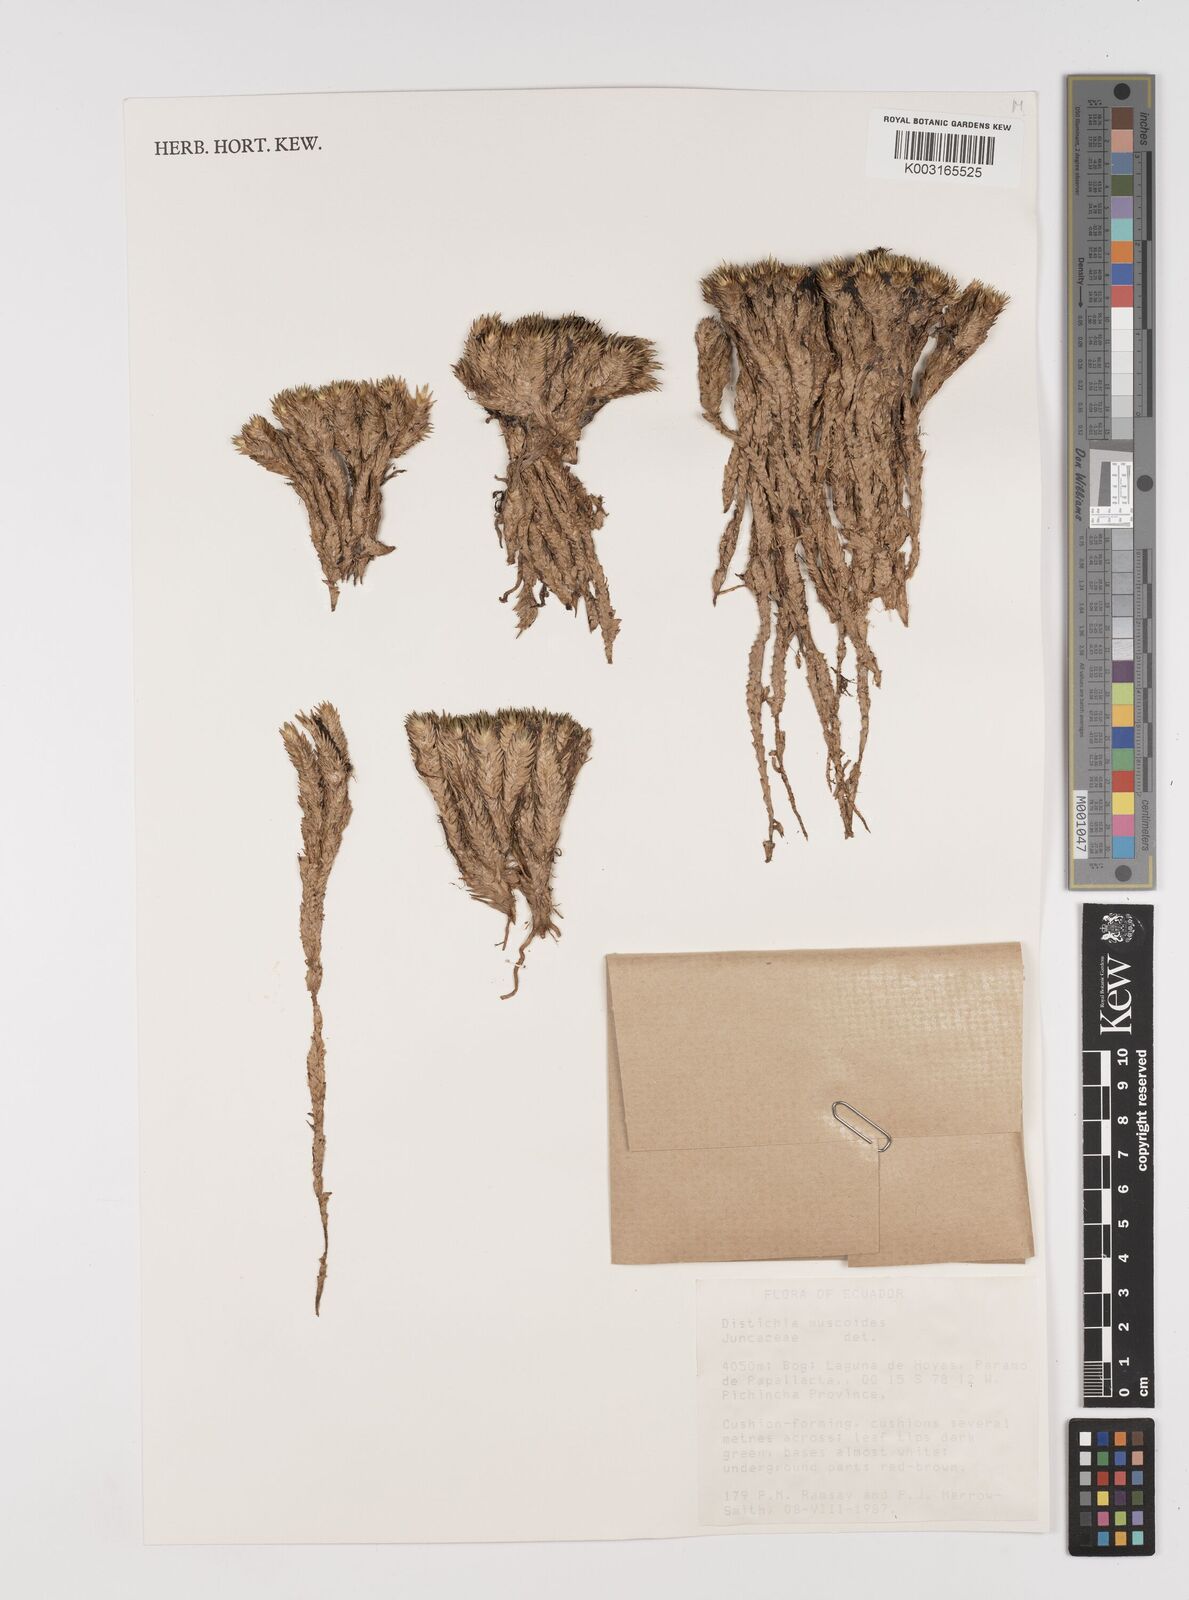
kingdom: Plantae
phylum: Tracheophyta
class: Liliopsida
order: Poales
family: Juncaceae
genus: Distichia
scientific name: Distichia muscoides
